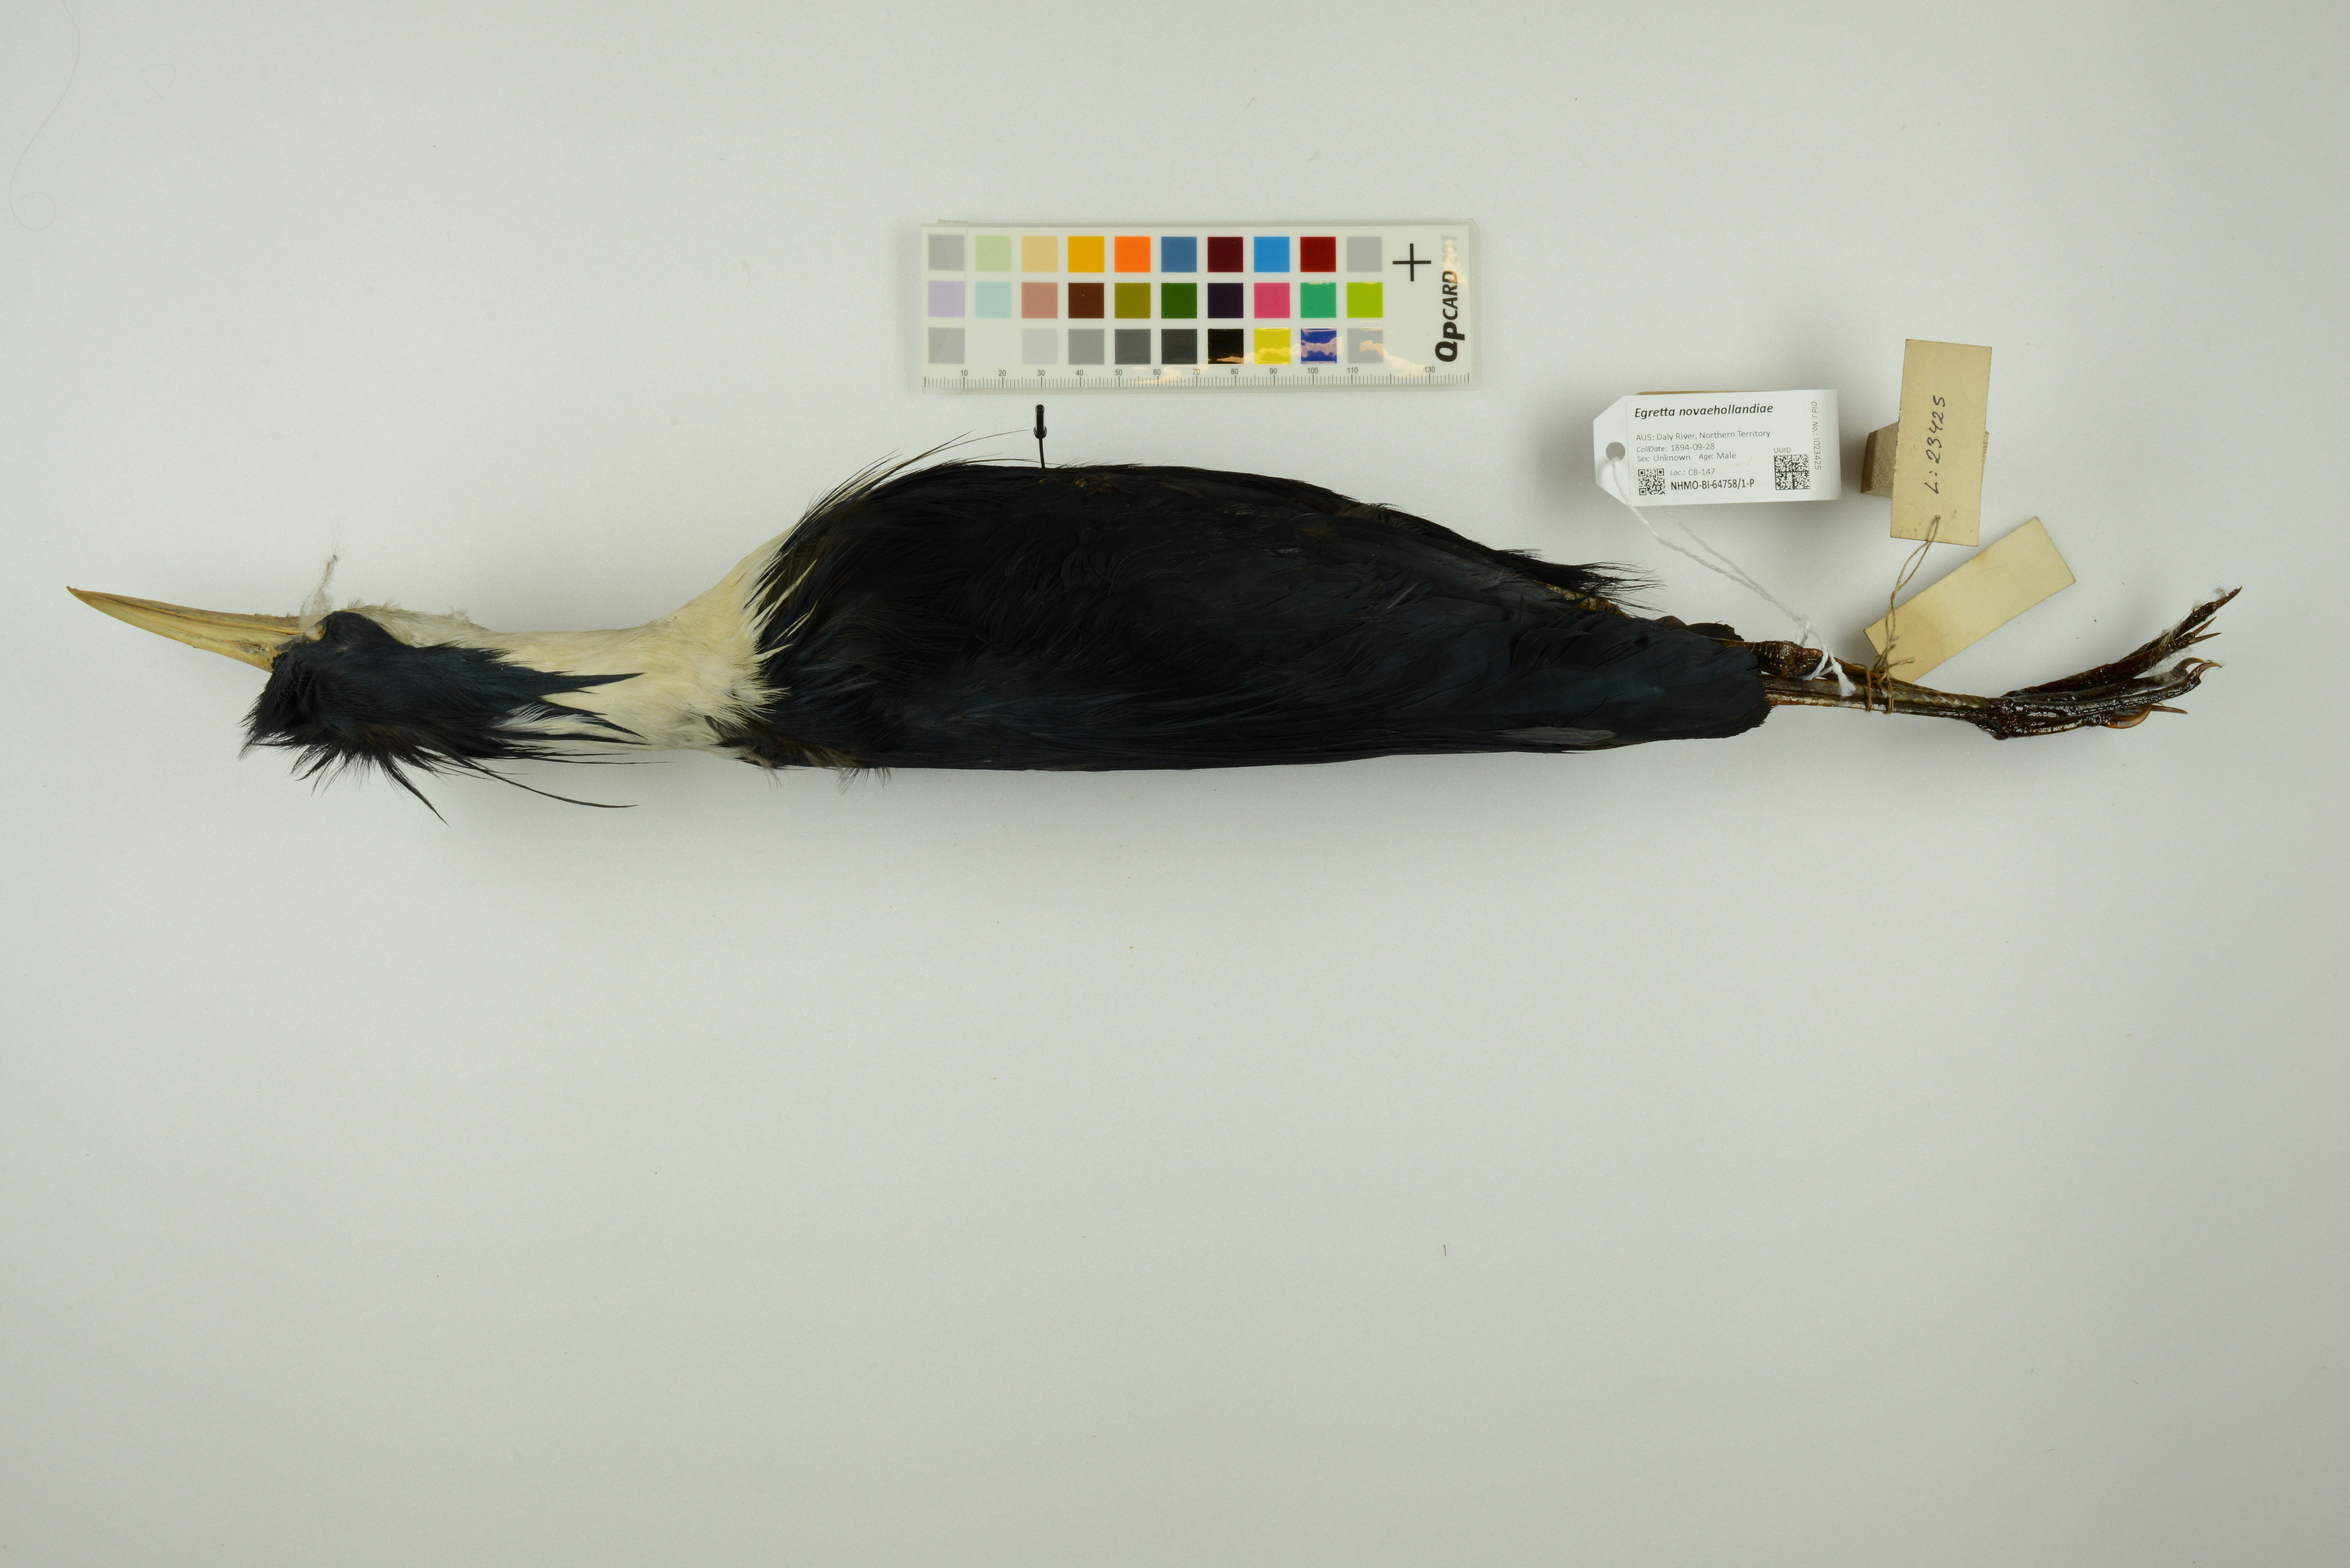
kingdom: Animalia
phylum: Chordata
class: Aves
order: Pelecaniformes
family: Ardeidae
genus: Egretta
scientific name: Egretta novaehollandiae
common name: White-faced heron
